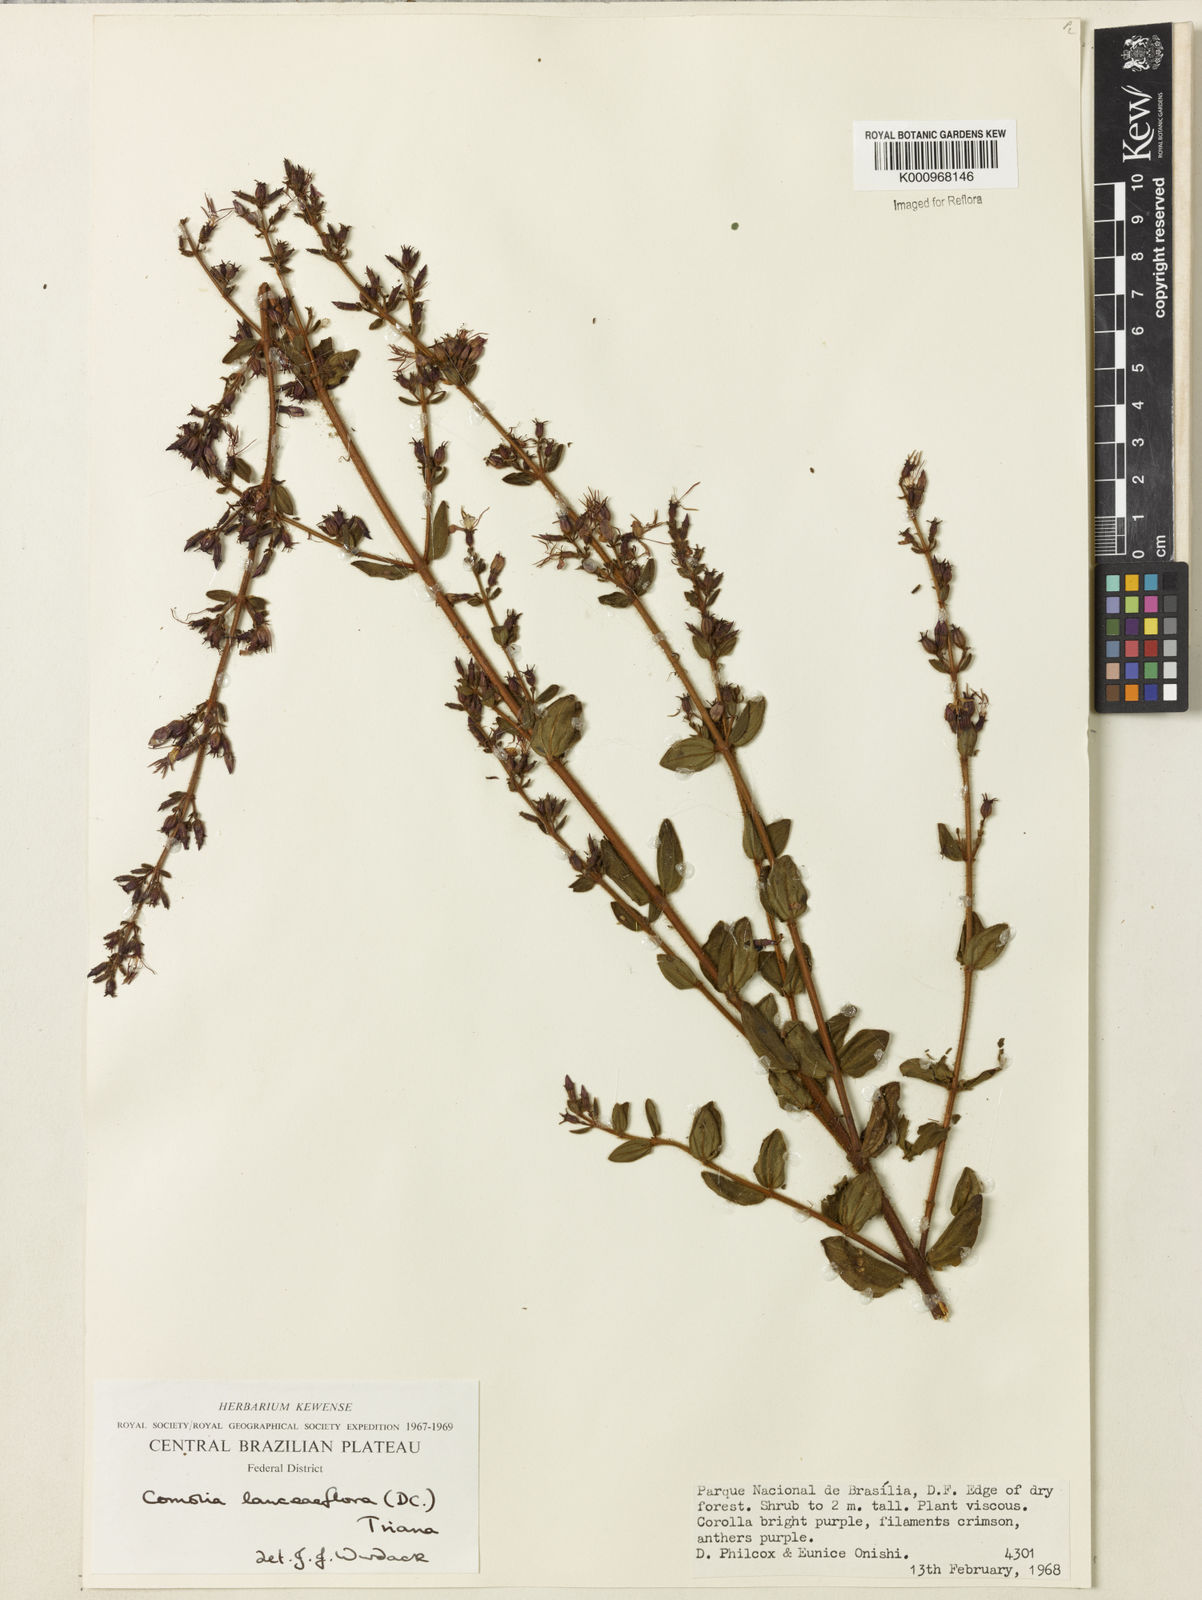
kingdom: Plantae
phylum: Tracheophyta
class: Magnoliopsida
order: Myrtales
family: Melastomataceae
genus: Fritzschia
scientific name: Fritzschia lanceiflora
